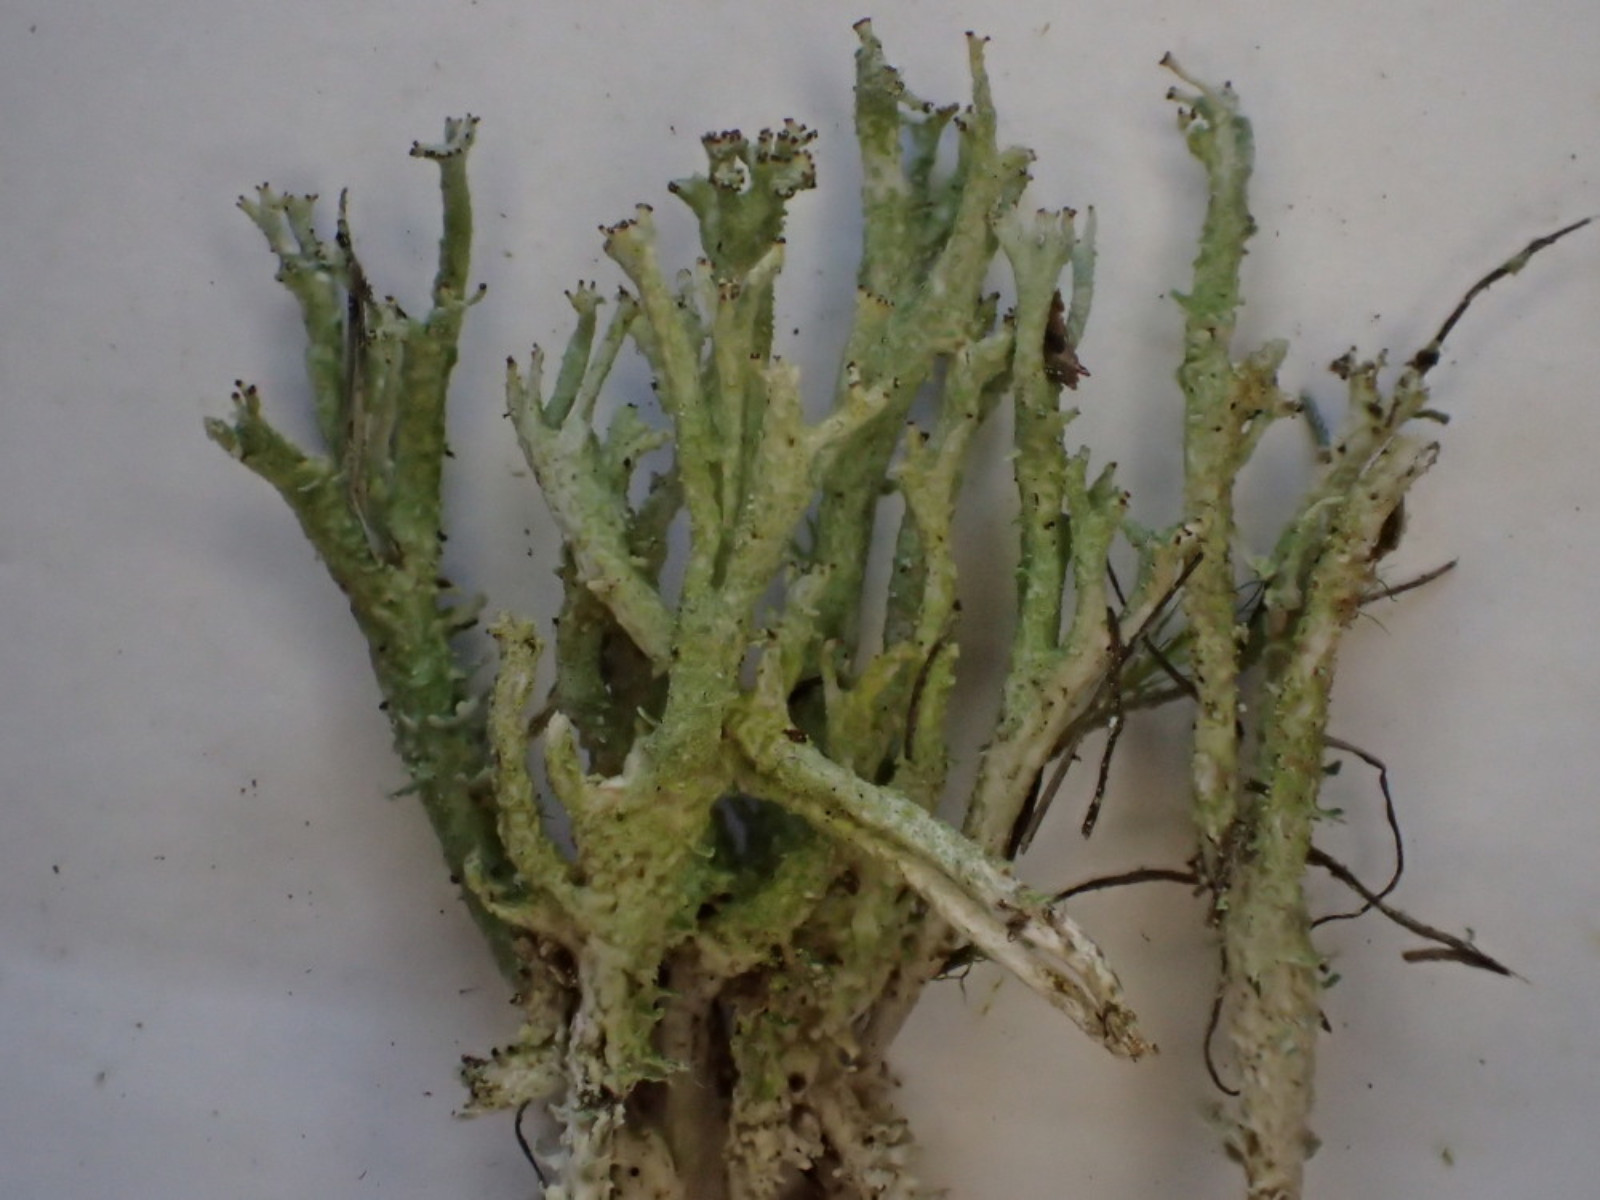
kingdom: Fungi
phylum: Ascomycota
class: Lecanoromycetes
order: Lecanorales
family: Cladoniaceae
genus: Cladonia
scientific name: Cladonia ramulosa
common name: kliddet bægerlav
